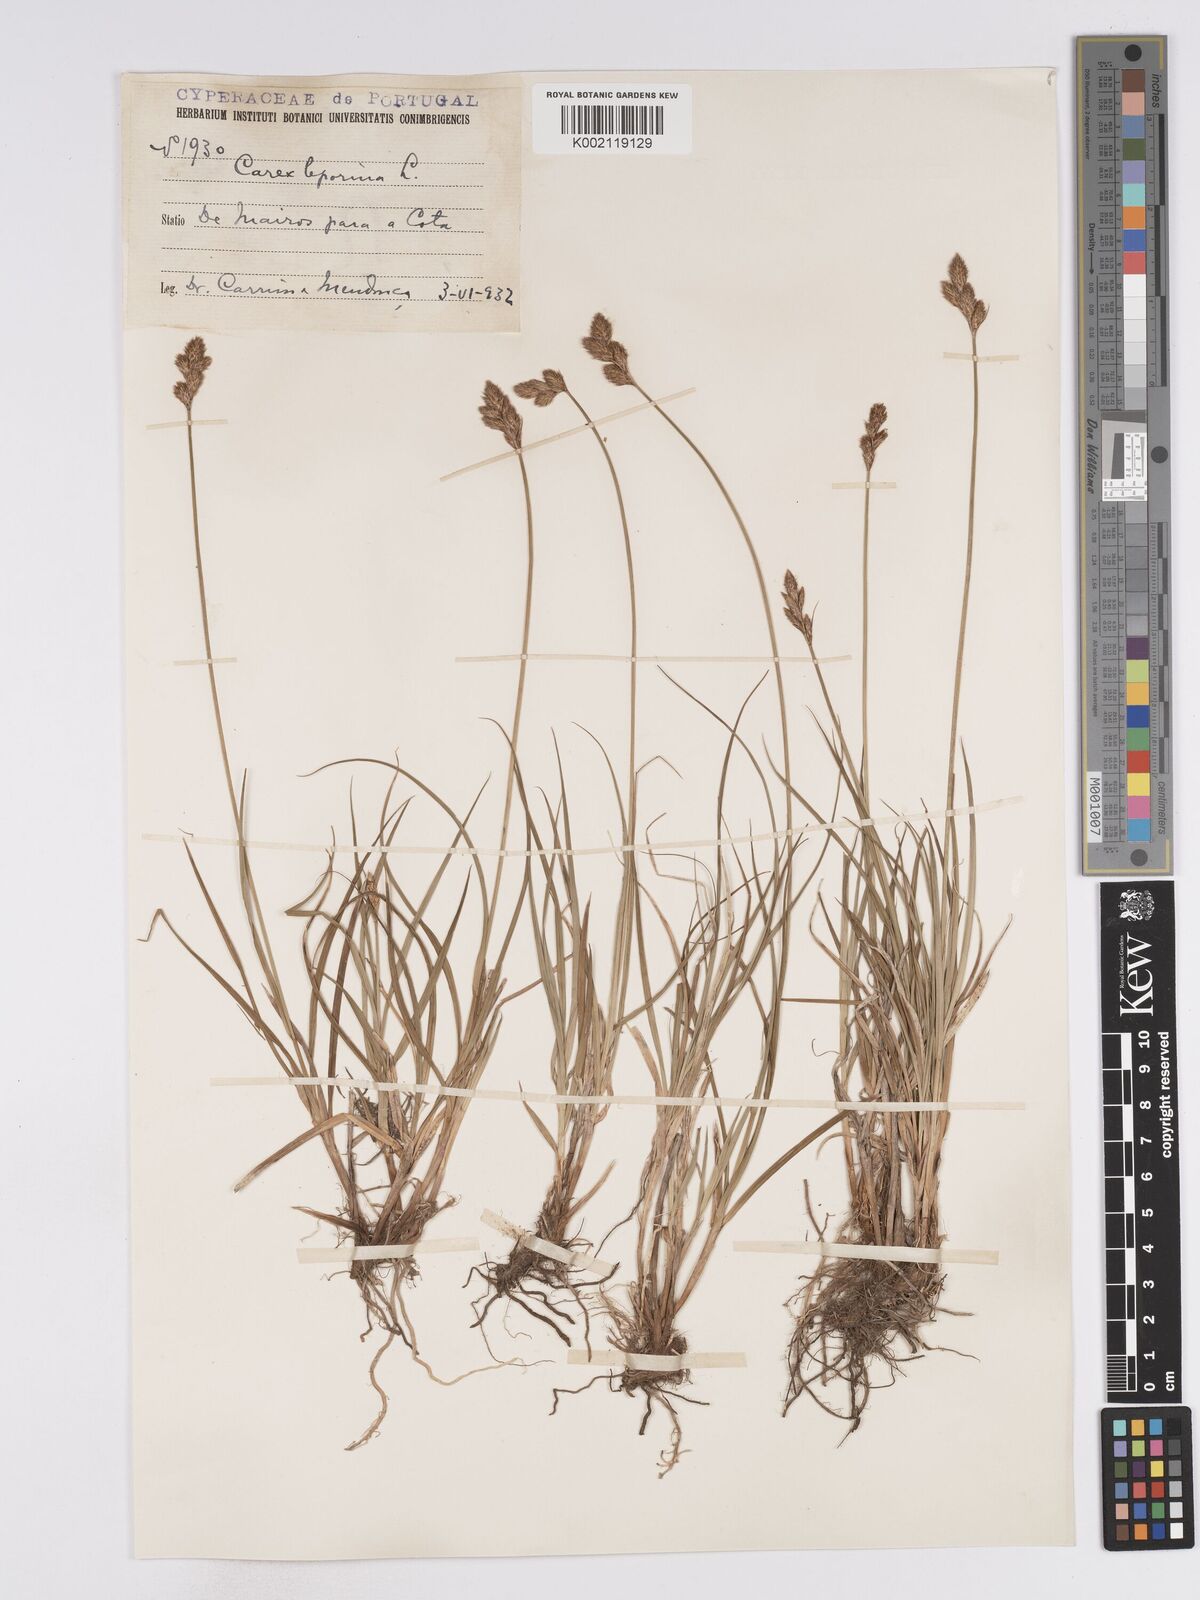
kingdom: Plantae
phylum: Tracheophyta
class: Liliopsida
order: Poales
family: Cyperaceae
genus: Carex
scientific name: Carex leporina
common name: Oval sedge
